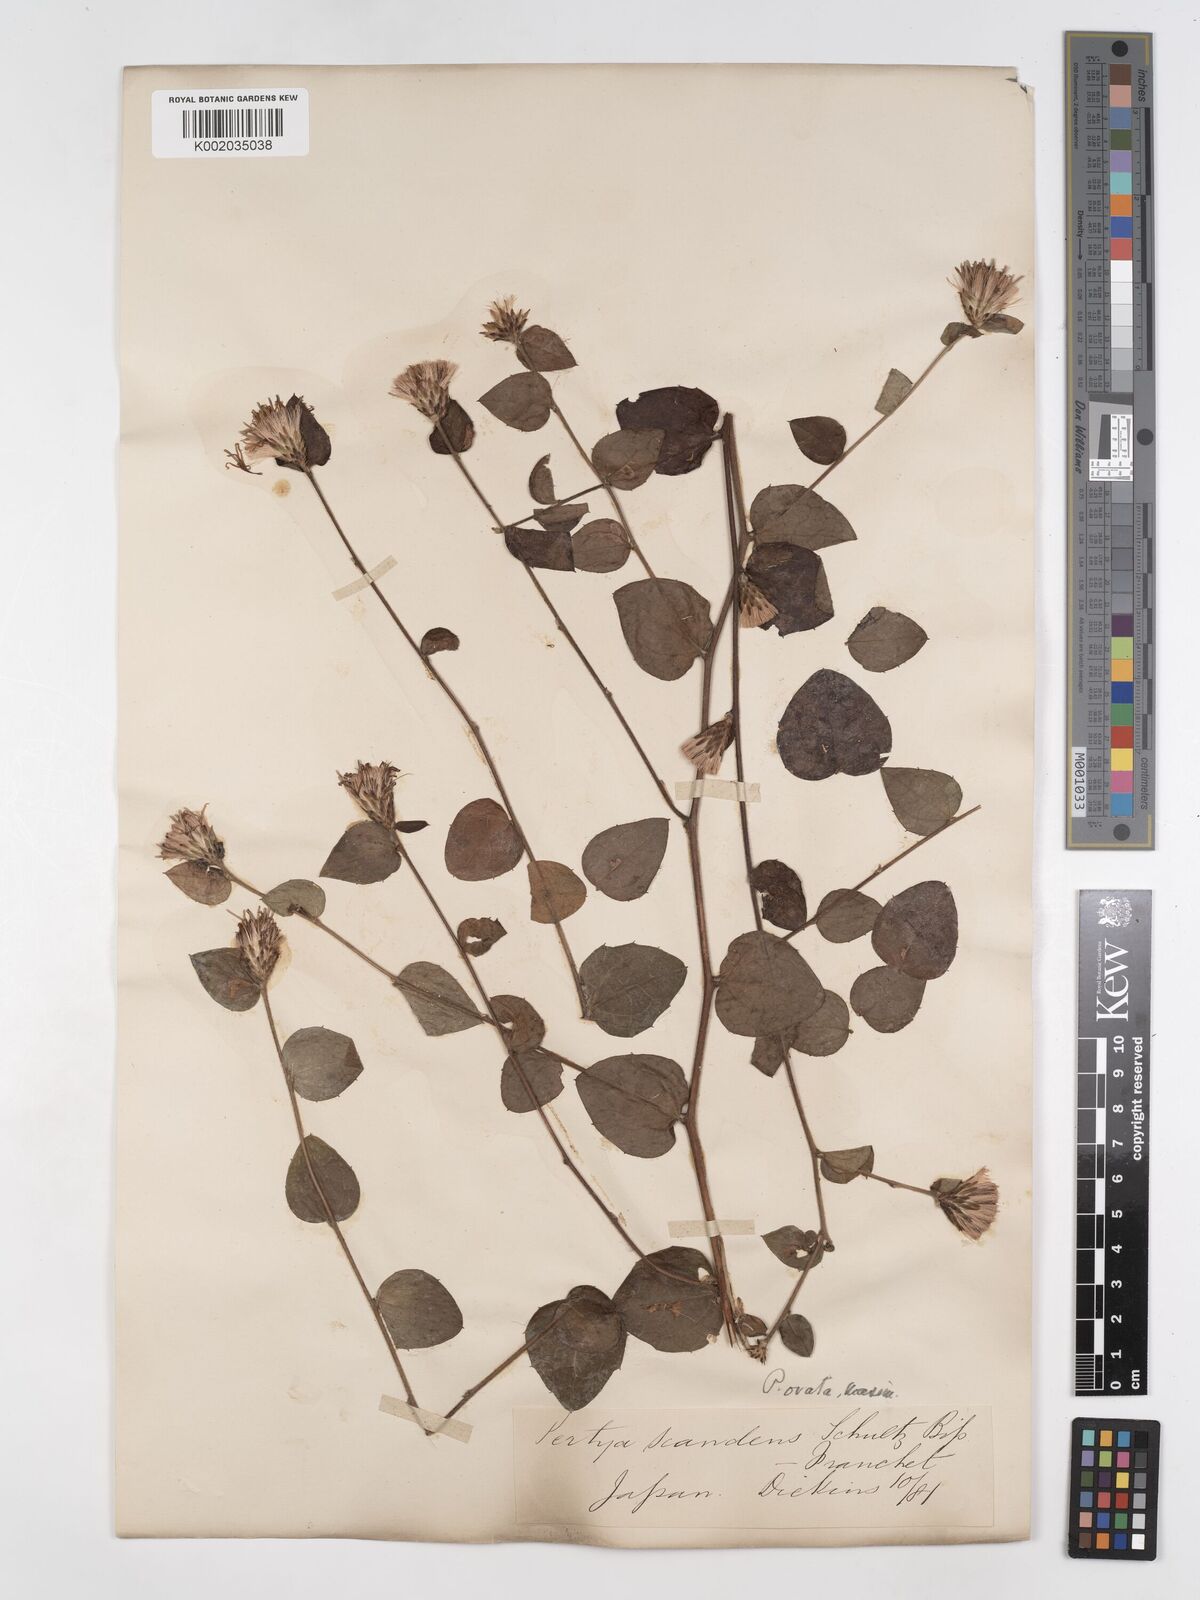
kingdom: Plantae
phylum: Tracheophyta
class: Magnoliopsida
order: Asterales
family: Asteraceae
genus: Pertya
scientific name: Pertya scandens
